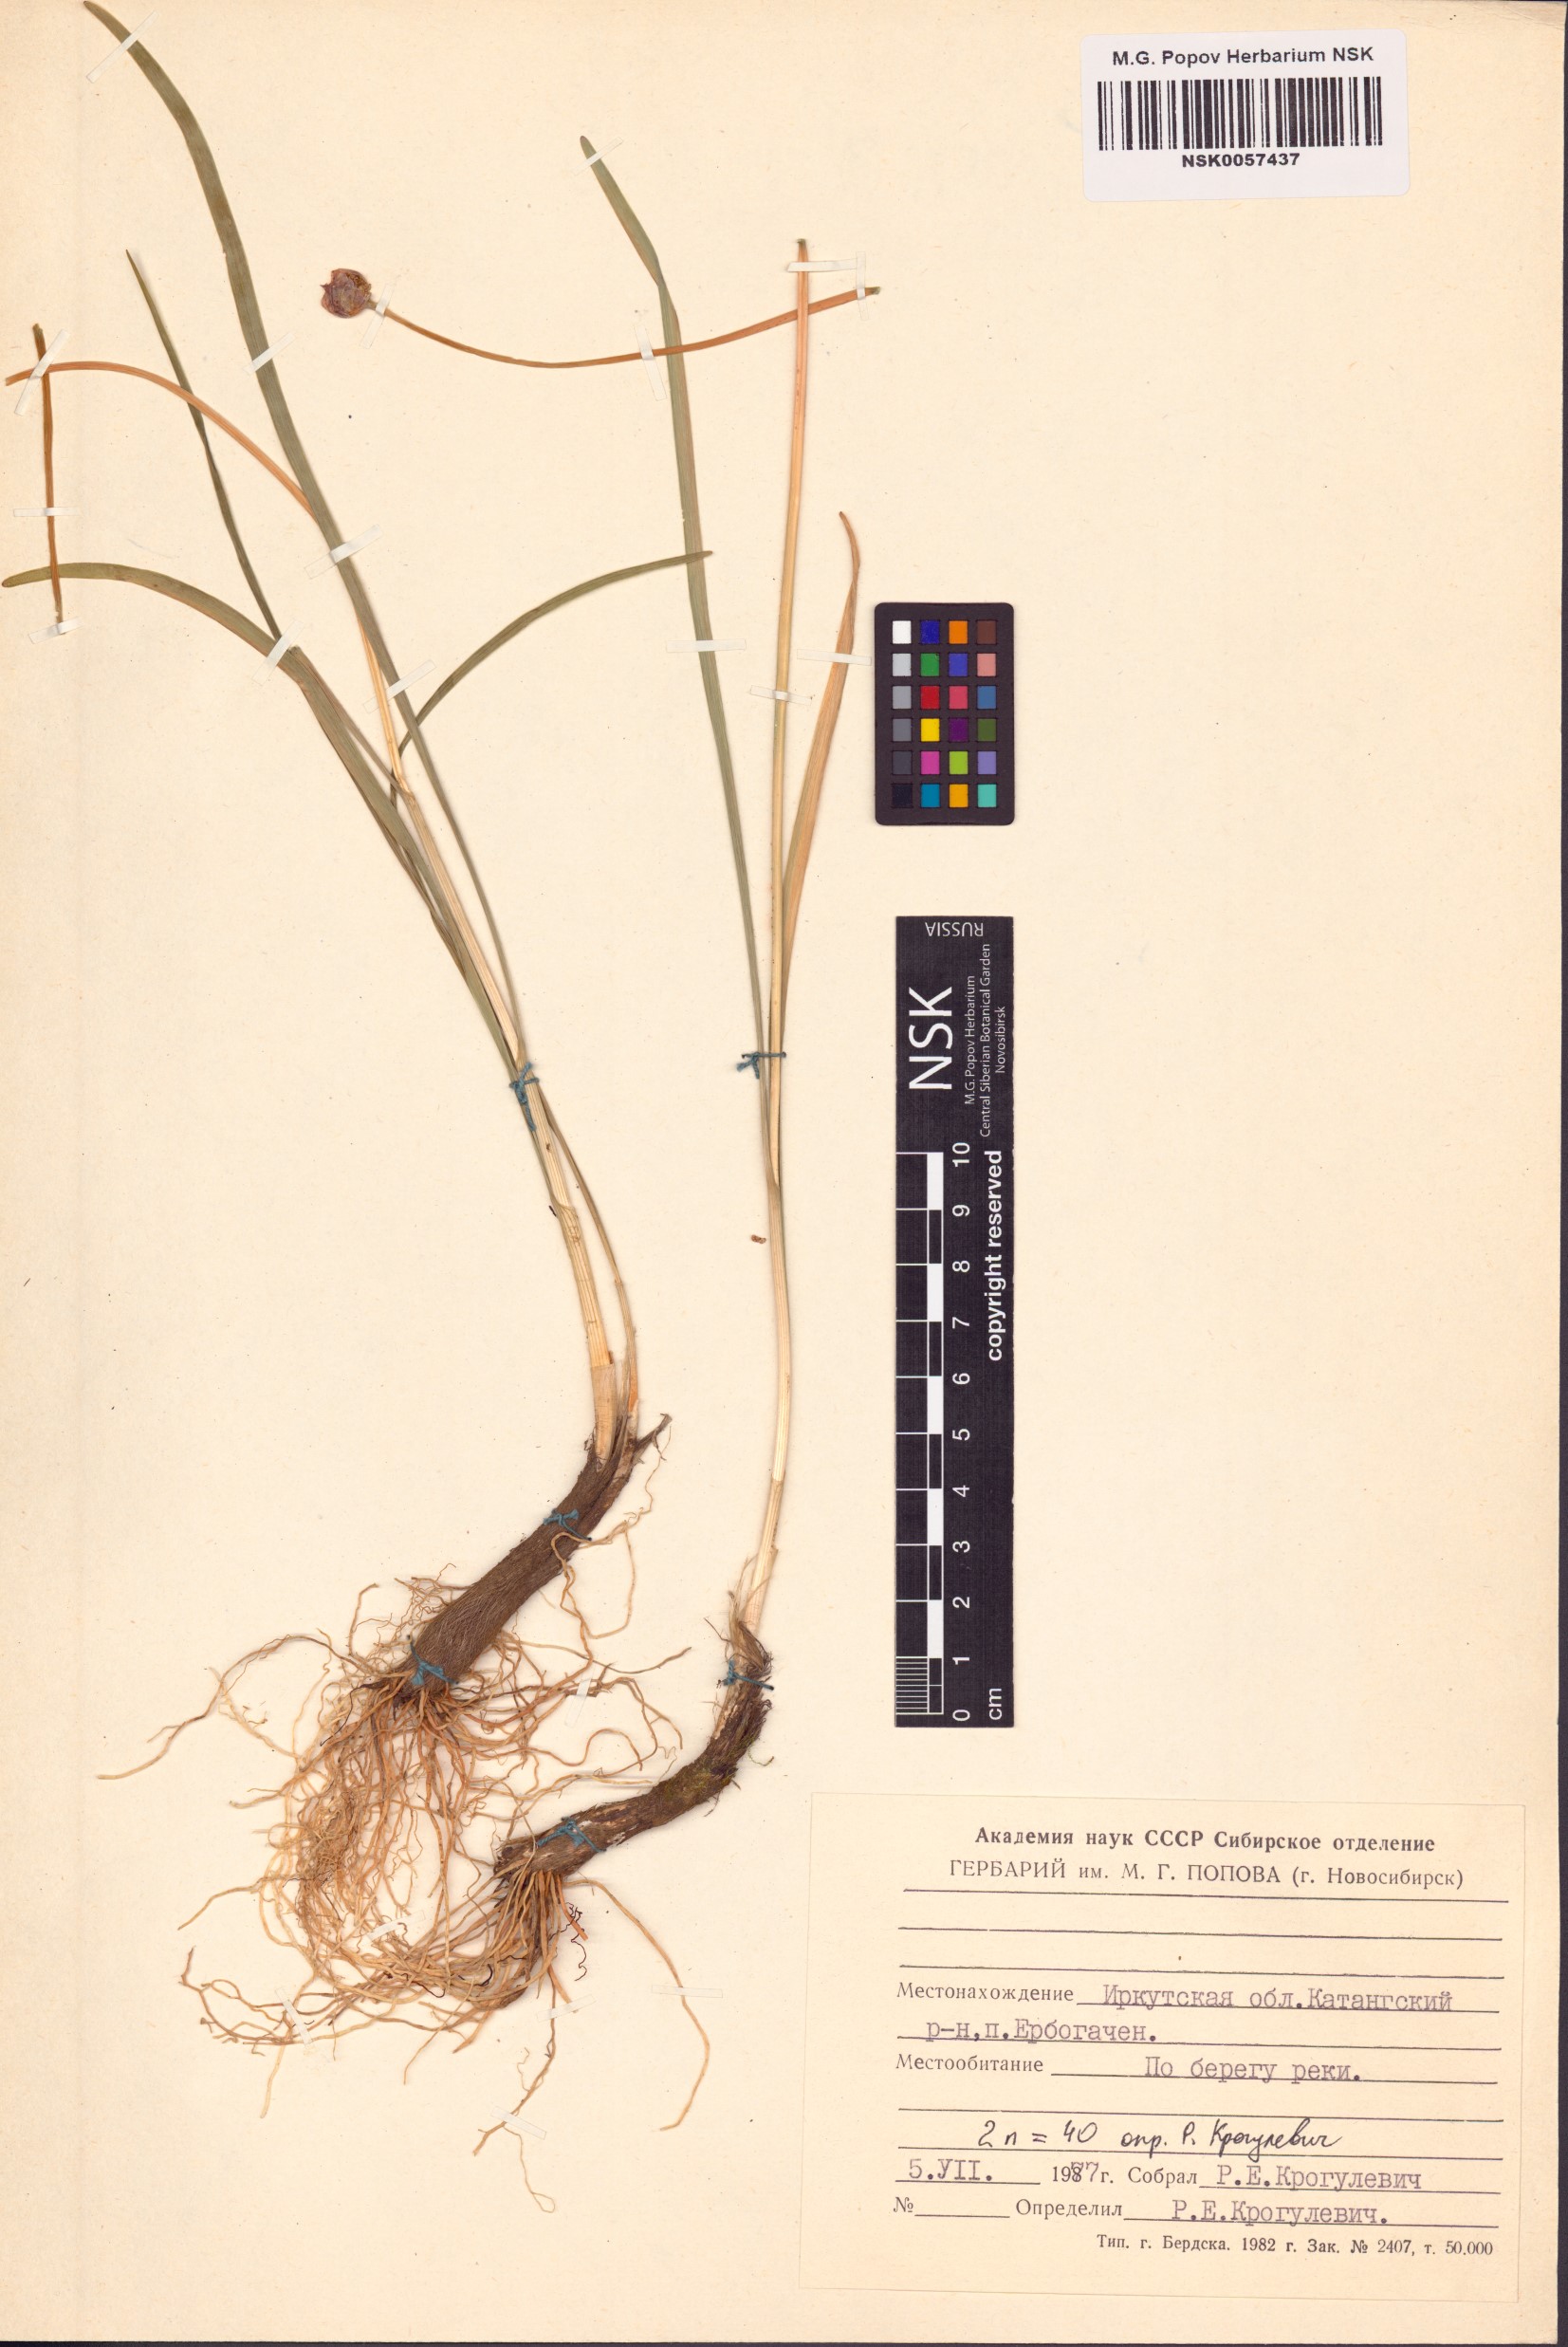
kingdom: Plantae
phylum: Tracheophyta
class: Liliopsida
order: Asparagales
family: Amaryllidaceae
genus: Allium
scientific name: Allium splendens
